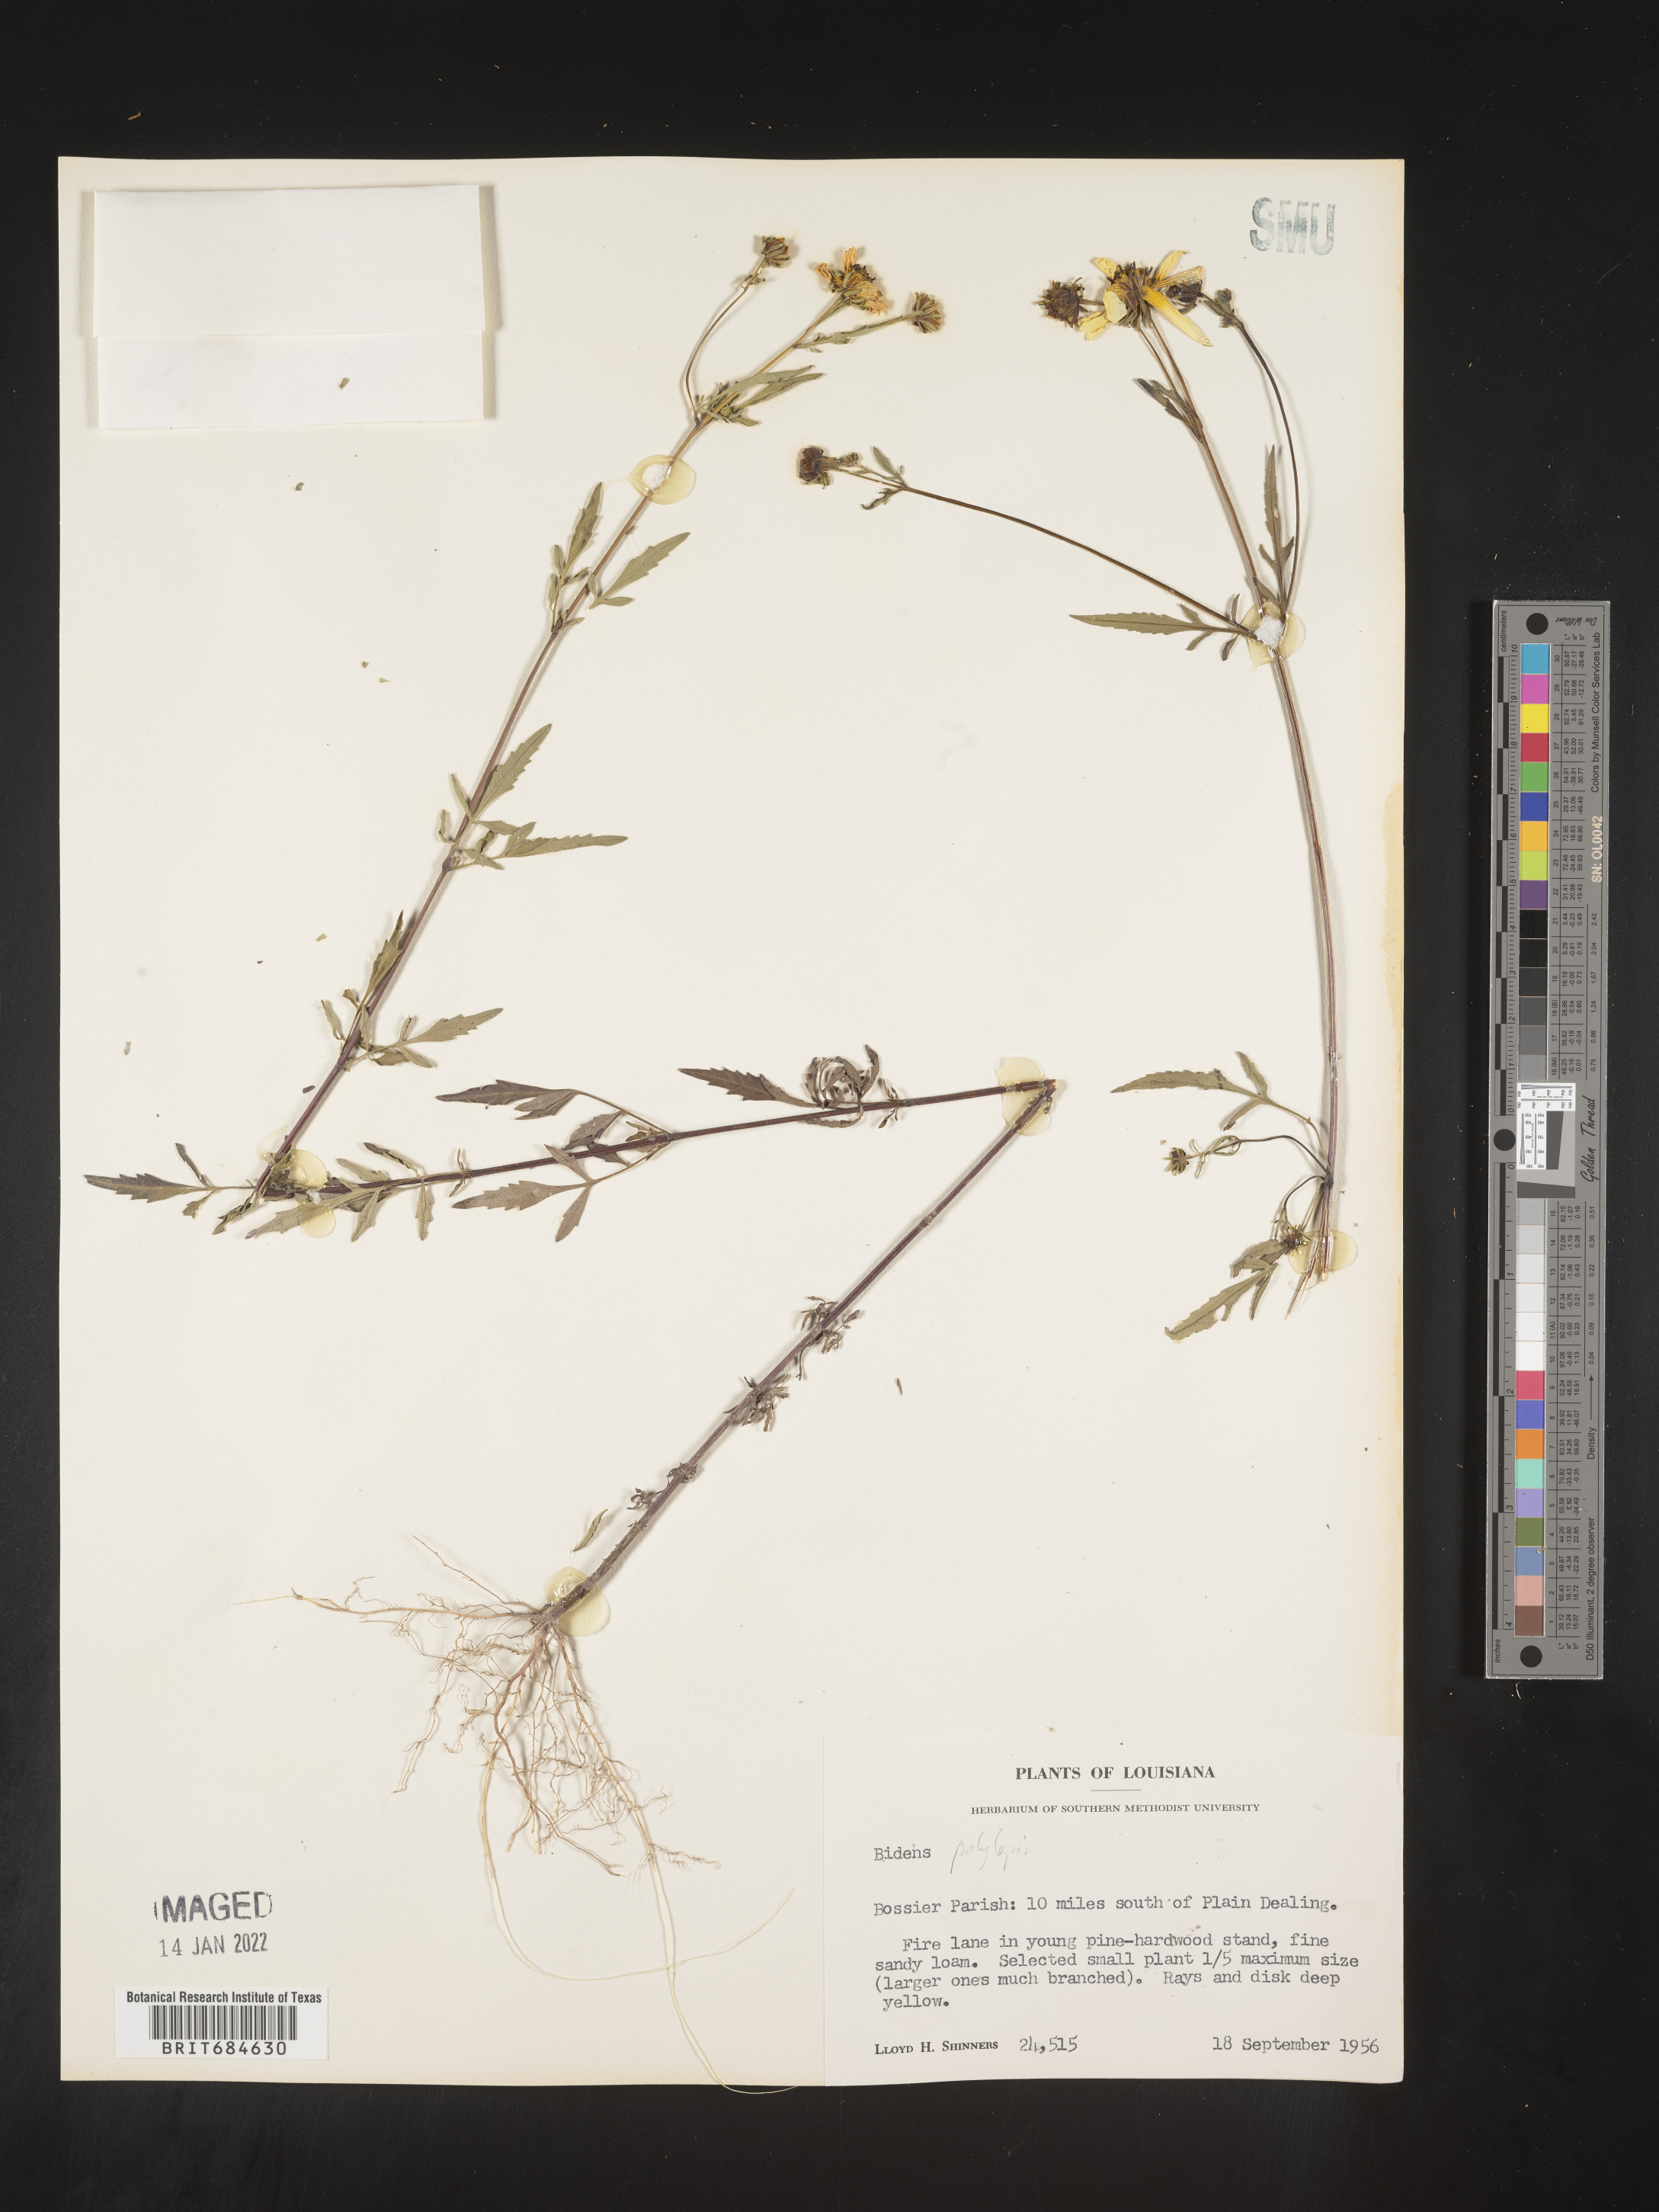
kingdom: Plantae
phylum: Tracheophyta
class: Magnoliopsida
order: Asterales
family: Asteraceae
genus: Bidens
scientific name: Bidens polylepis
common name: Awnless beggarticks
